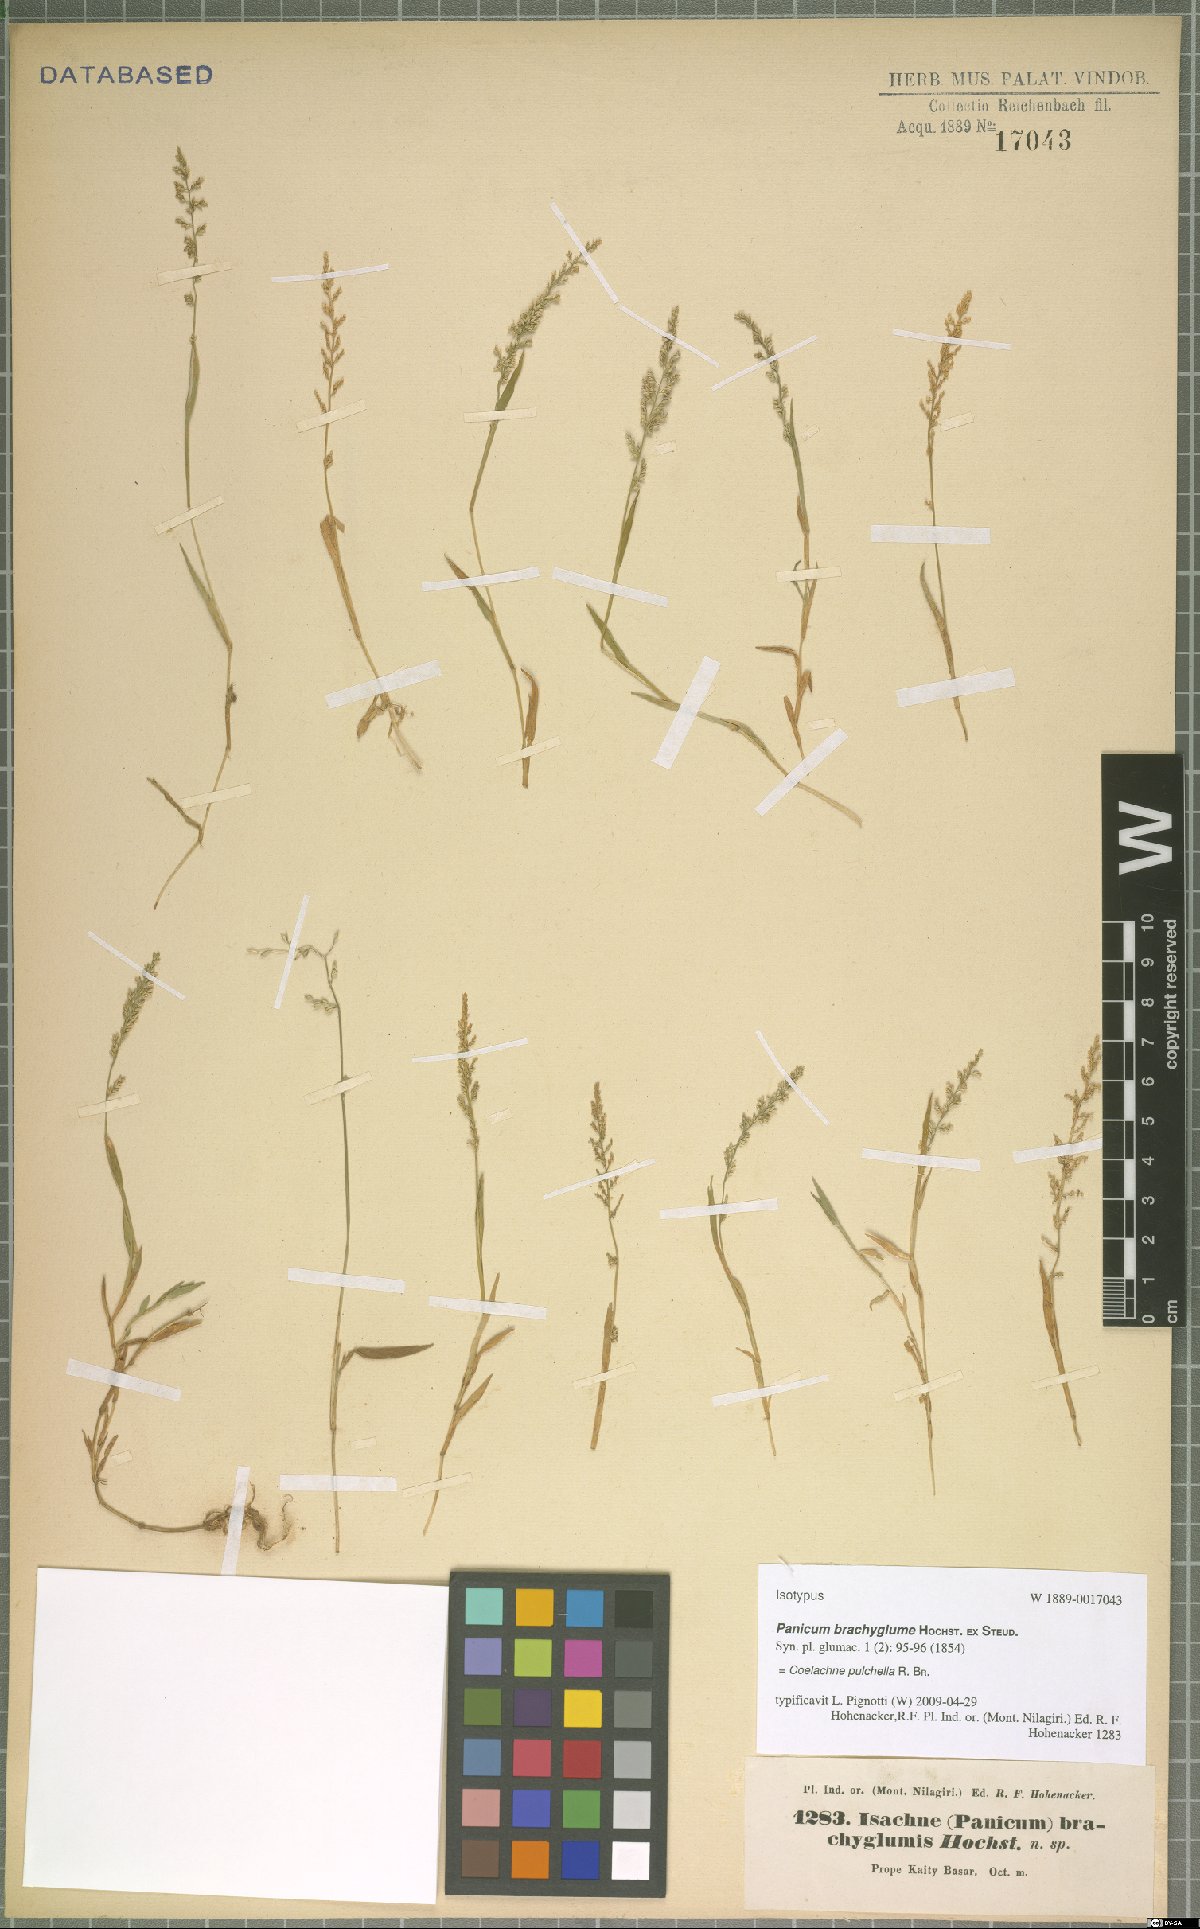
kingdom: Plantae
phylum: Tracheophyta
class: Liliopsida
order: Poales
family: Poaceae
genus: Coelachne
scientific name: Coelachne pulchella
